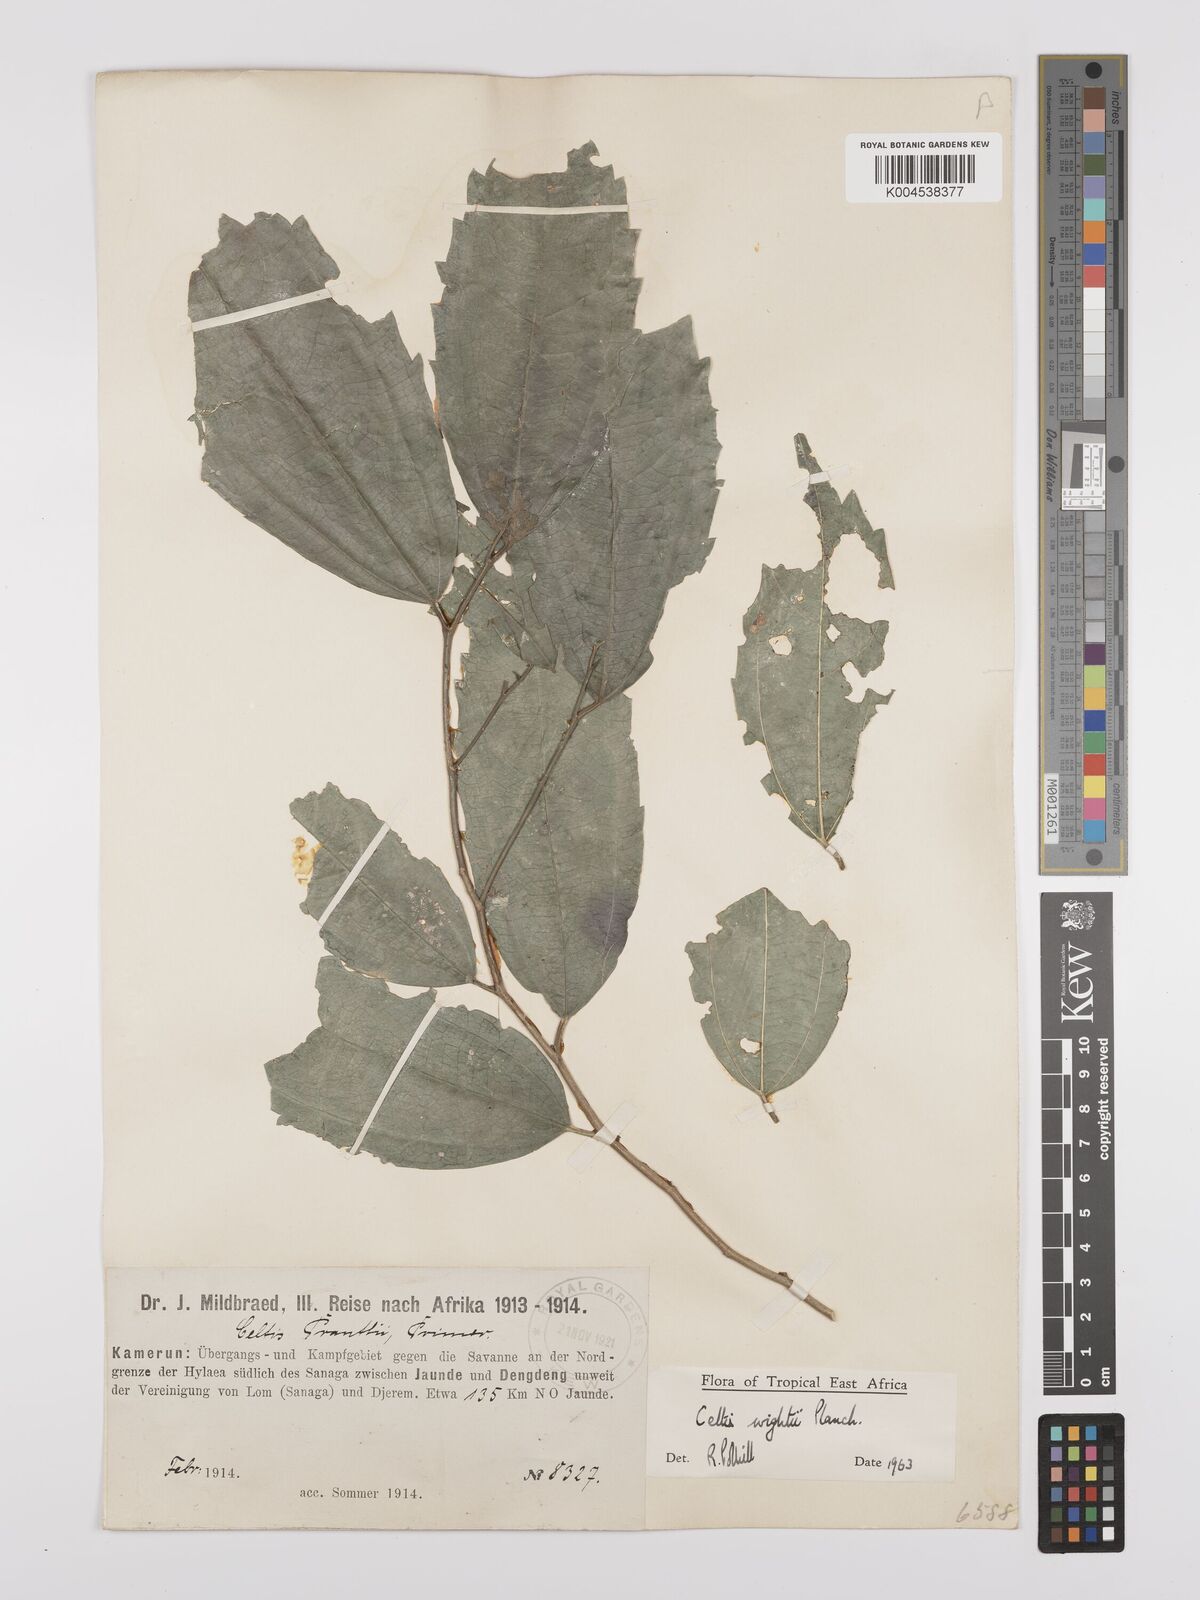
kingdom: Plantae
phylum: Tracheophyta
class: Magnoliopsida
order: Rosales
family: Cannabaceae
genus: Celtis
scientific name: Celtis philippensis
